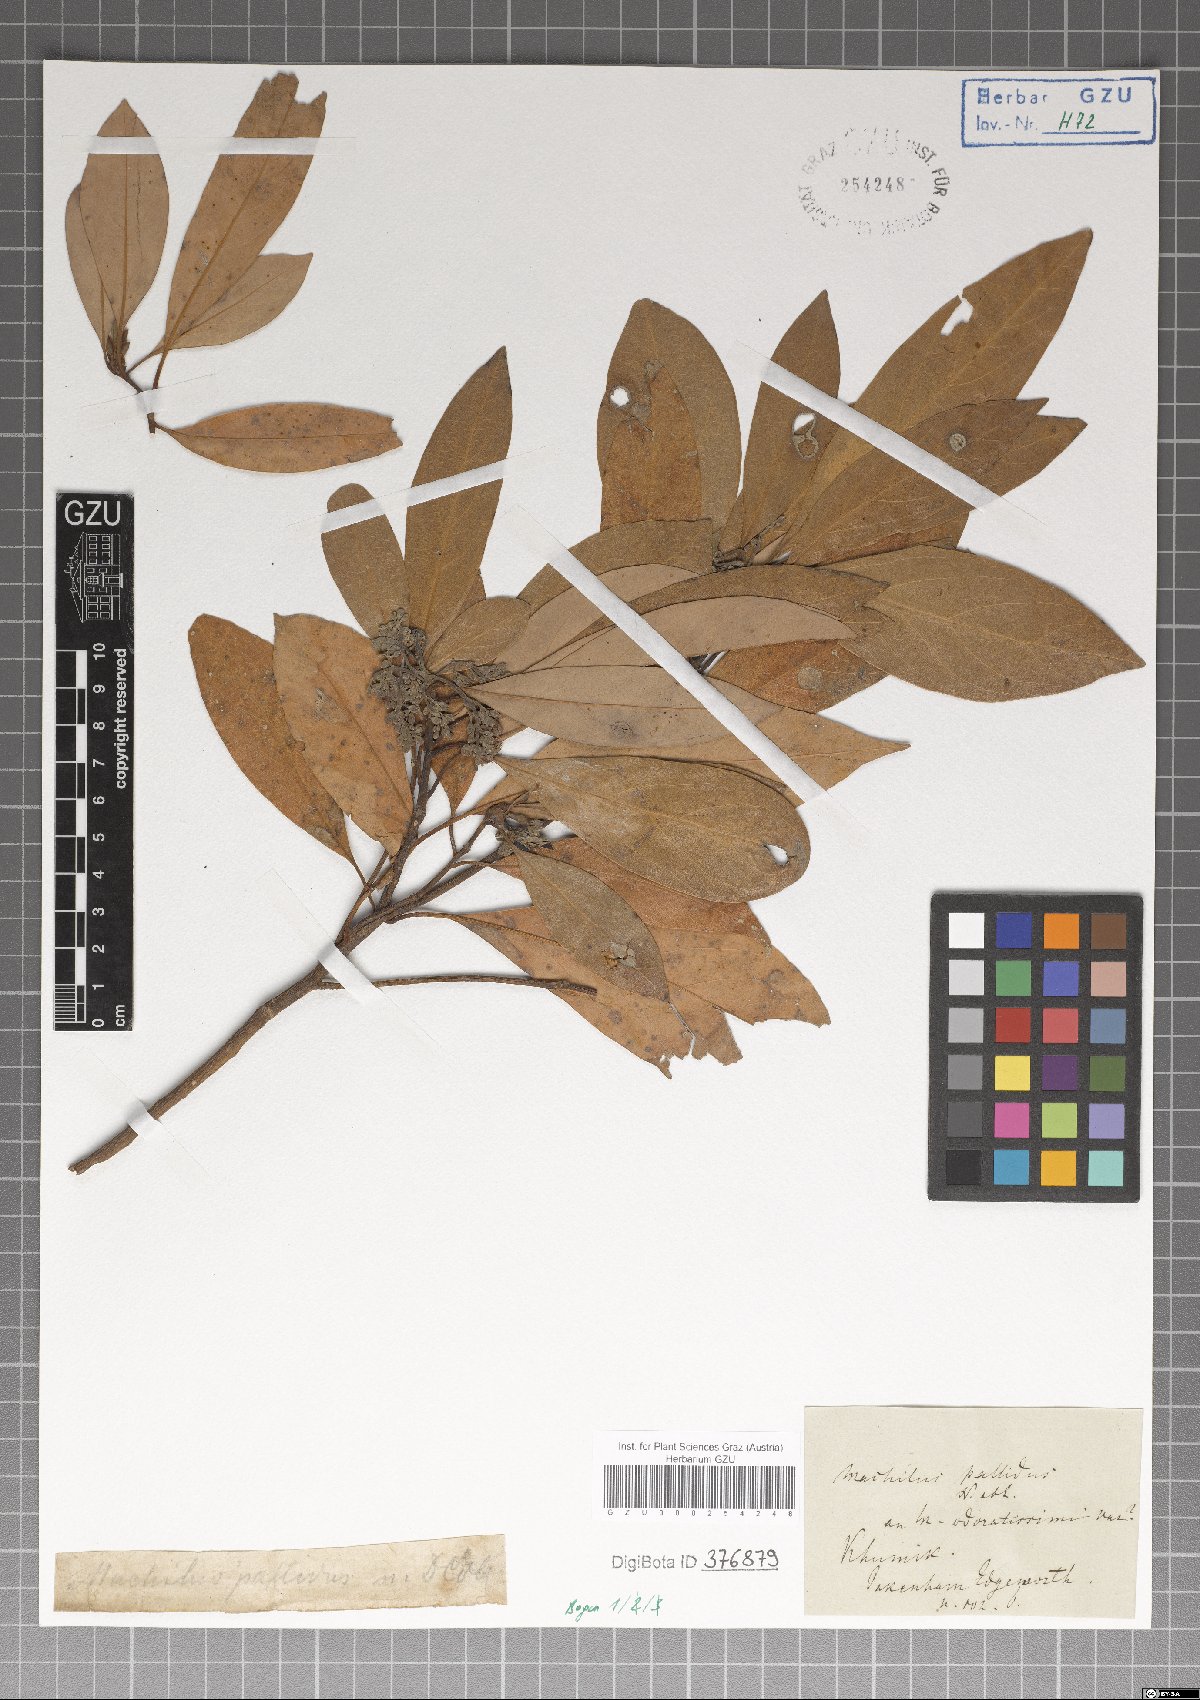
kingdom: Plantae
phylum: Tracheophyta
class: Magnoliopsida
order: Laurales
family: Lauraceae
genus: Persea
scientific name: Persea
